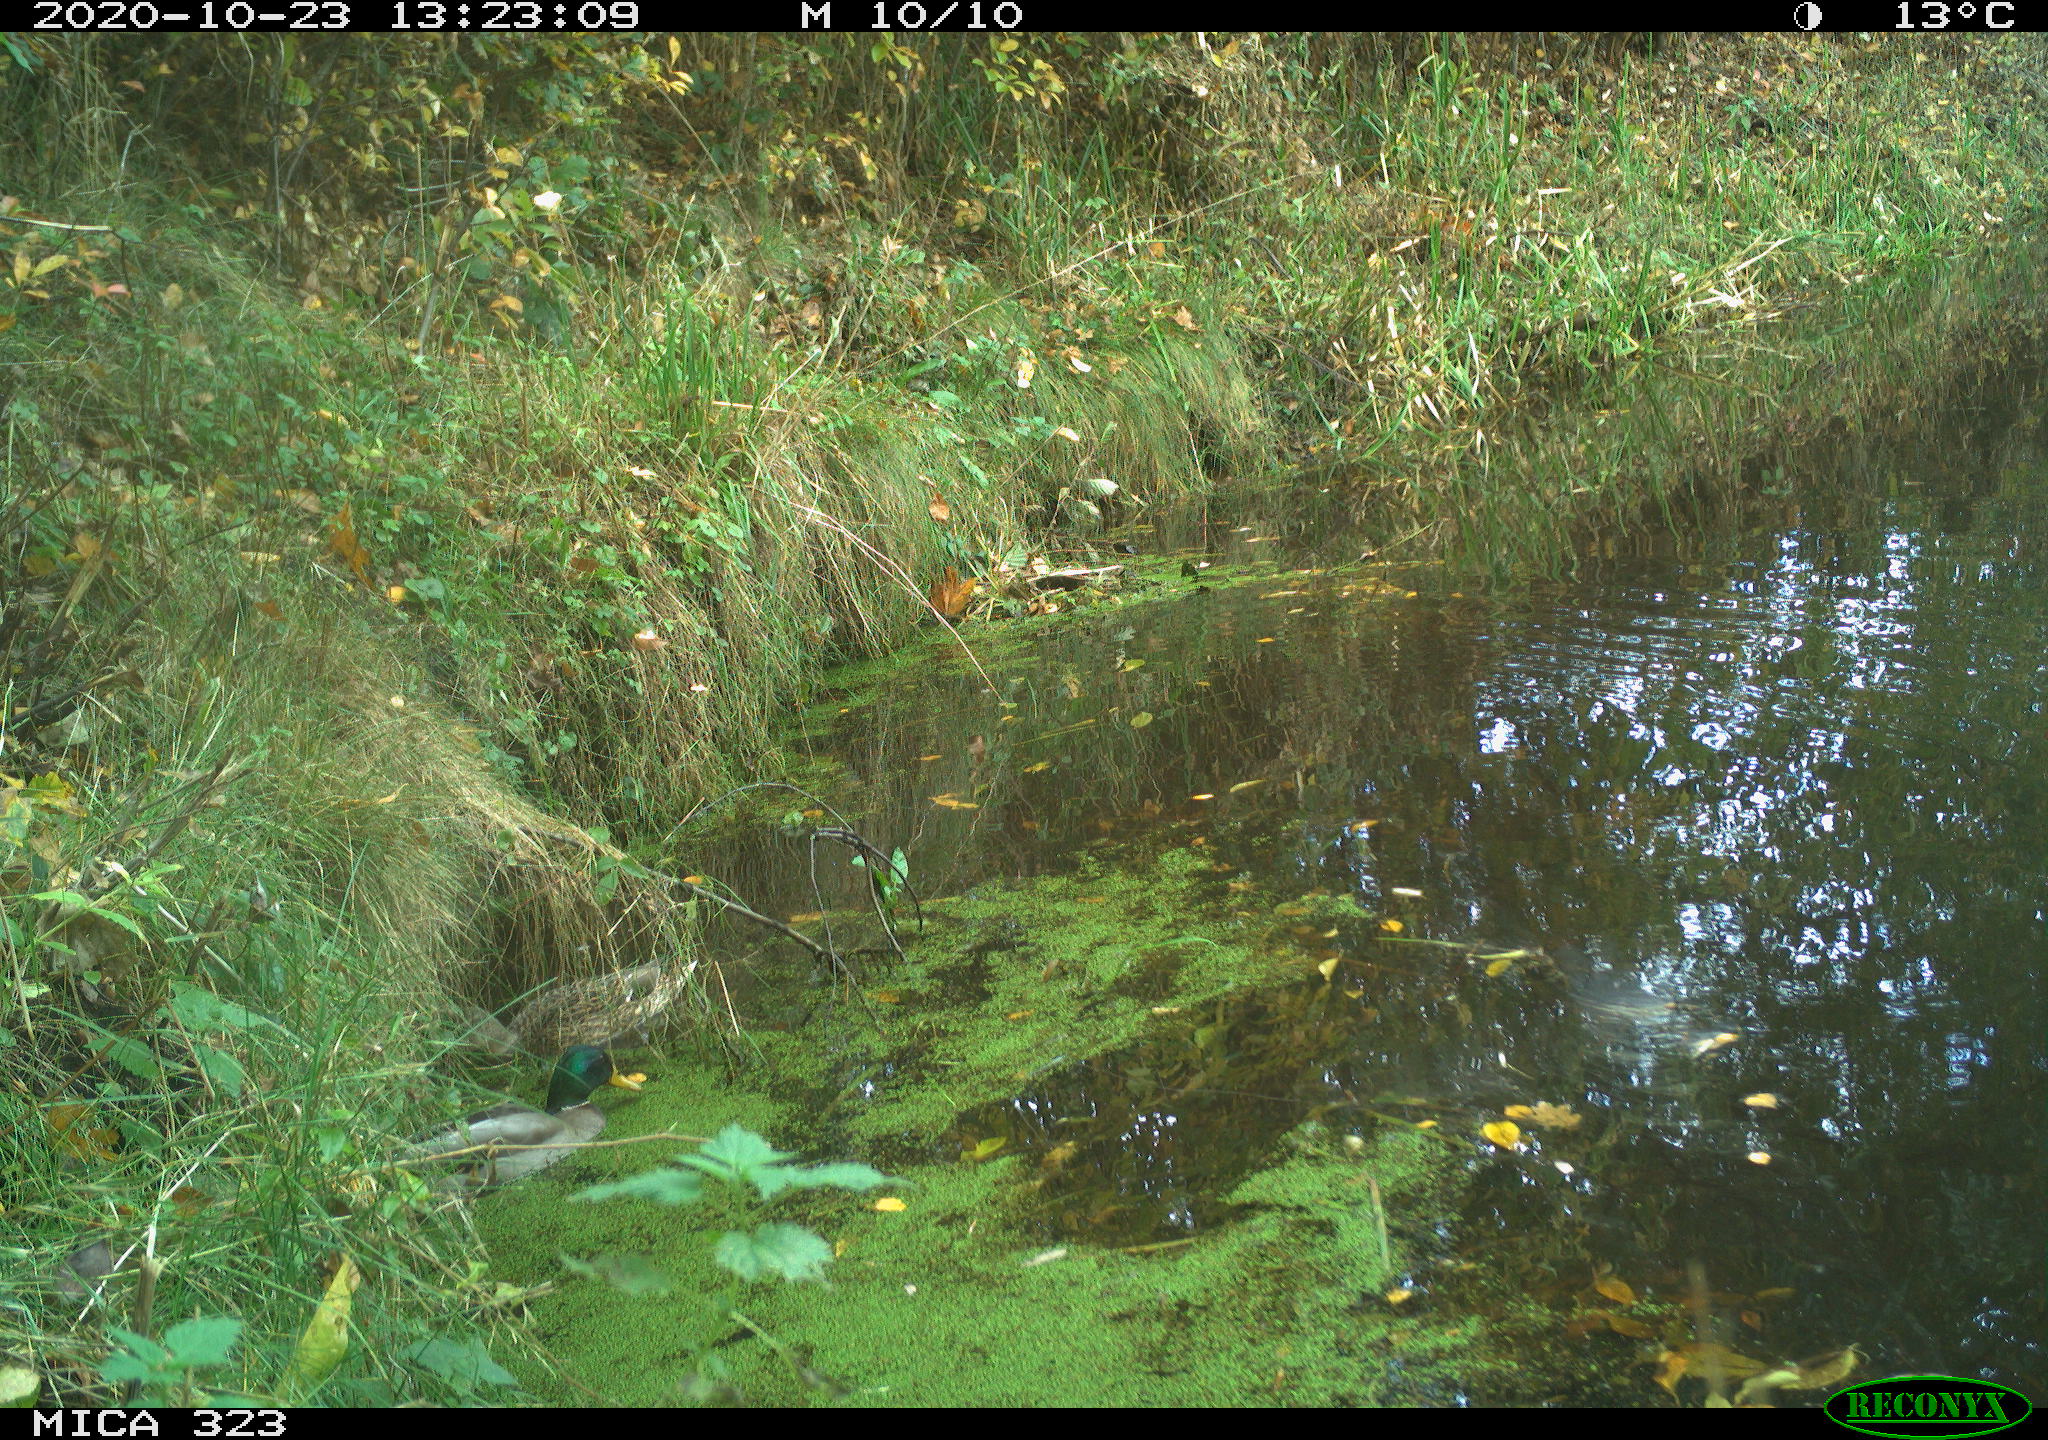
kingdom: Animalia
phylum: Chordata
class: Aves
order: Anseriformes
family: Anatidae
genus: Anas
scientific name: Anas platyrhynchos
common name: Mallard
